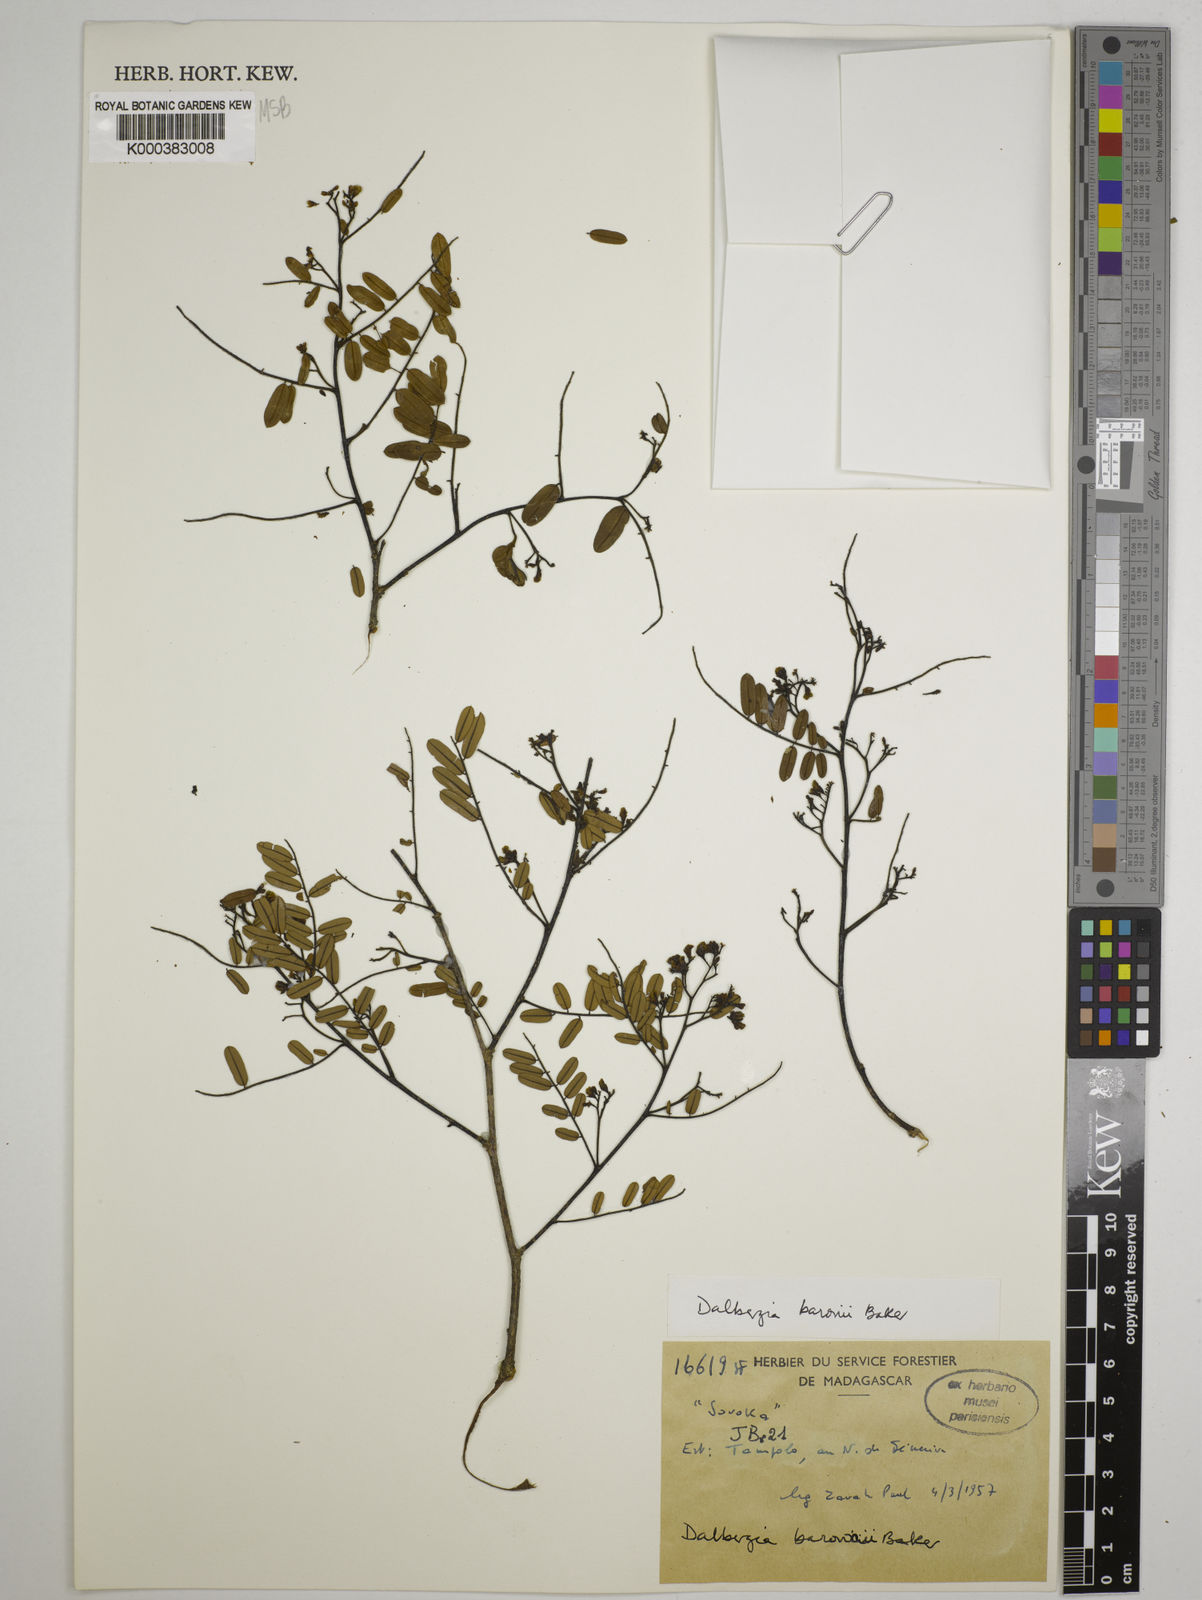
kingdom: Plantae
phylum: Tracheophyta
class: Magnoliopsida
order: Fabales
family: Fabaceae
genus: Dalbergia
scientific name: Dalbergia baronii
